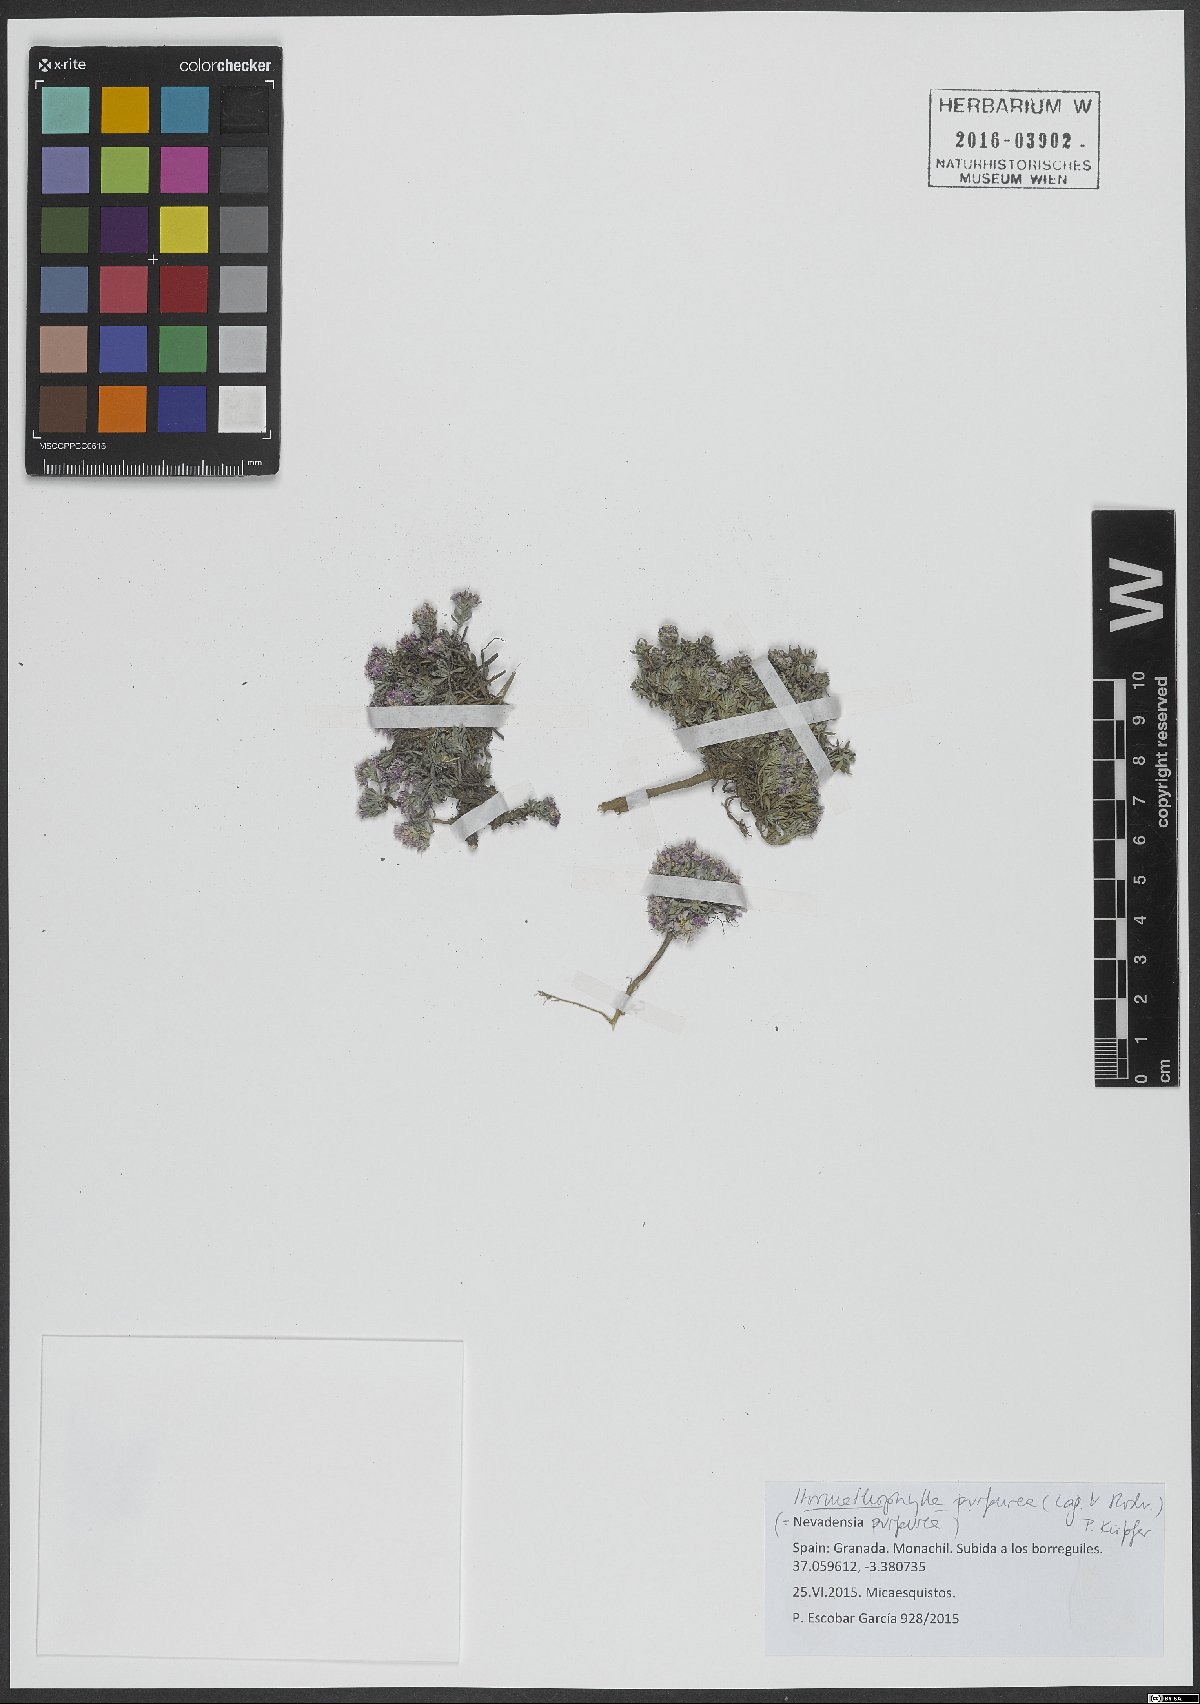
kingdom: Plantae
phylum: Tracheophyta
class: Magnoliopsida
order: Brassicales
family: Brassicaceae
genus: Hormathophylla
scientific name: Hormathophylla purpurea
